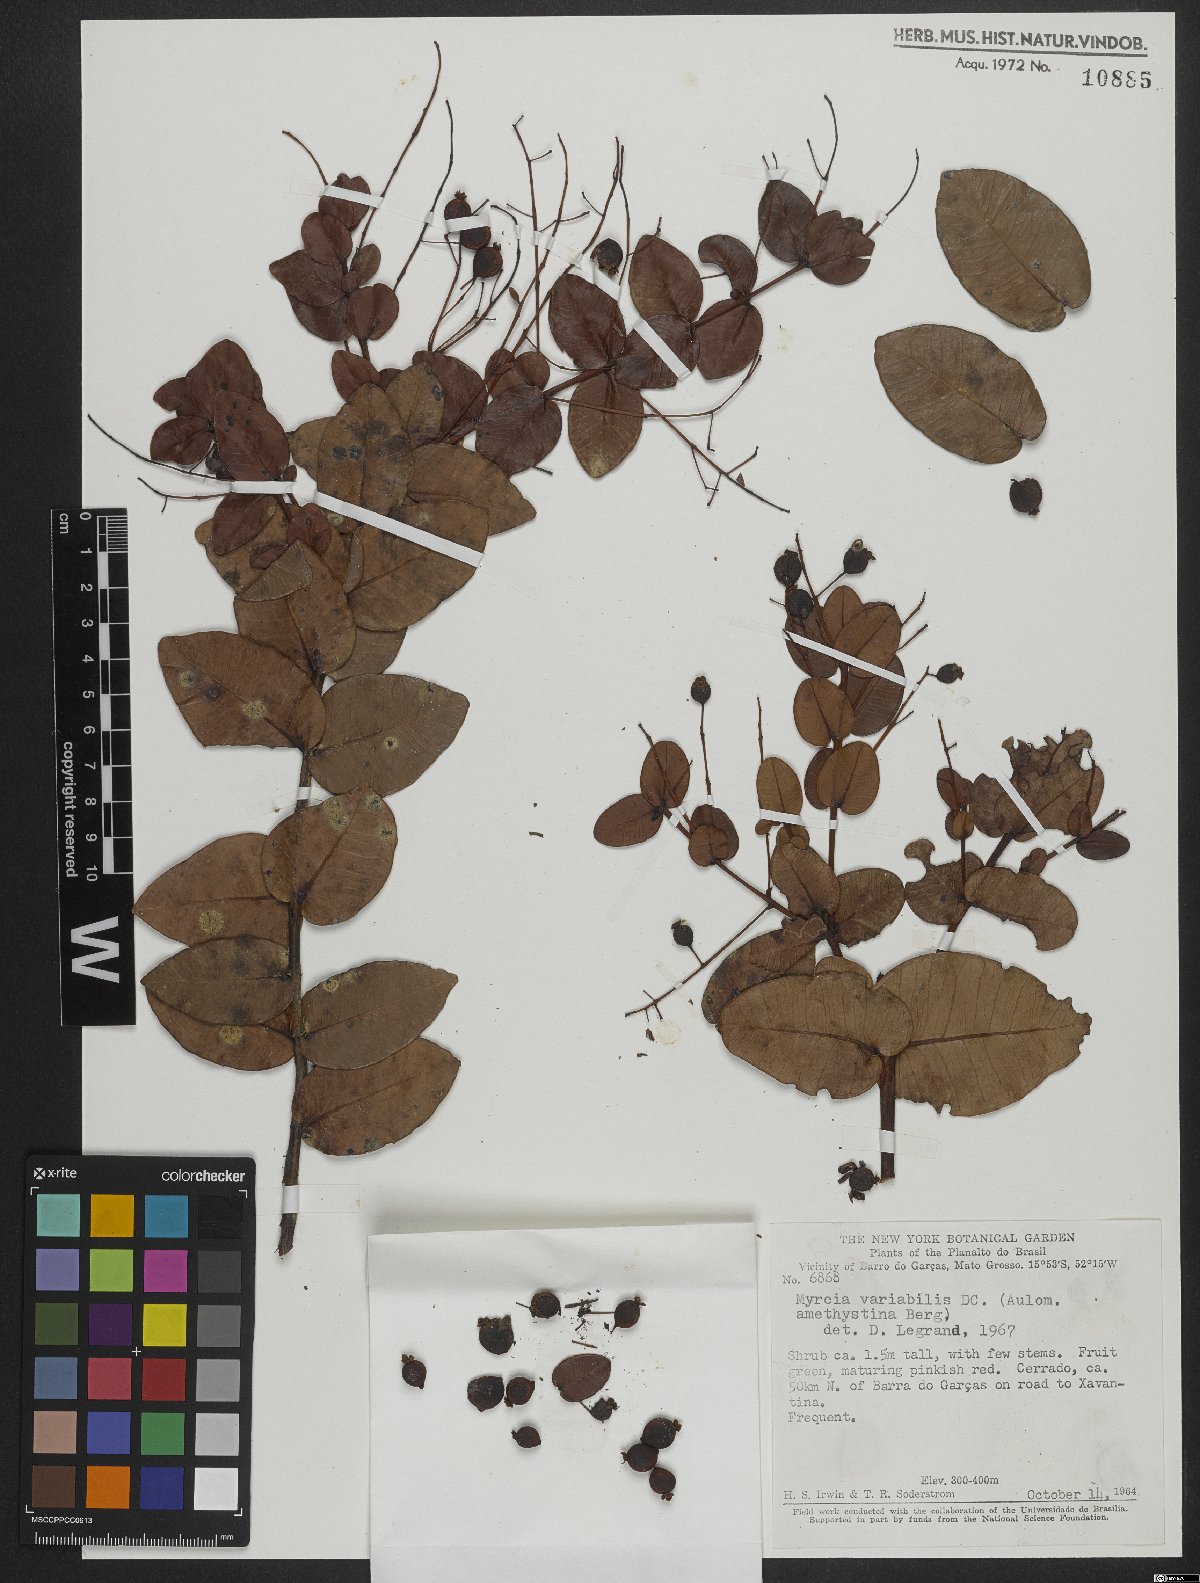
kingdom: Plantae
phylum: Tracheophyta
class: Magnoliopsida
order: Myrtales
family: Myrtaceae
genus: Myrcia
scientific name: Myrcia variabilis
